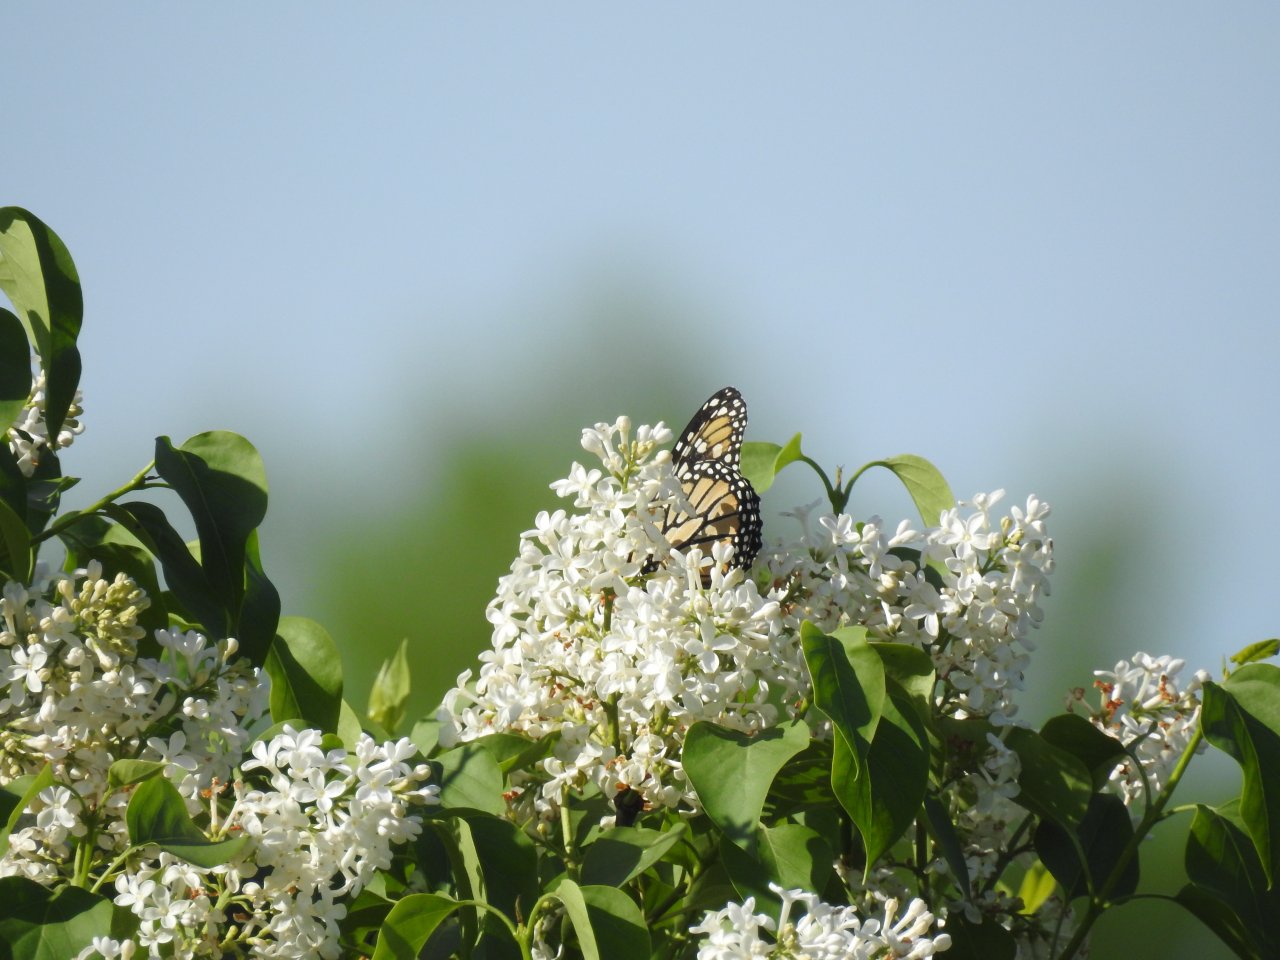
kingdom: Animalia
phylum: Arthropoda
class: Insecta
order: Lepidoptera
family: Nymphalidae
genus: Danaus
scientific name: Danaus plexippus
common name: Monarch
